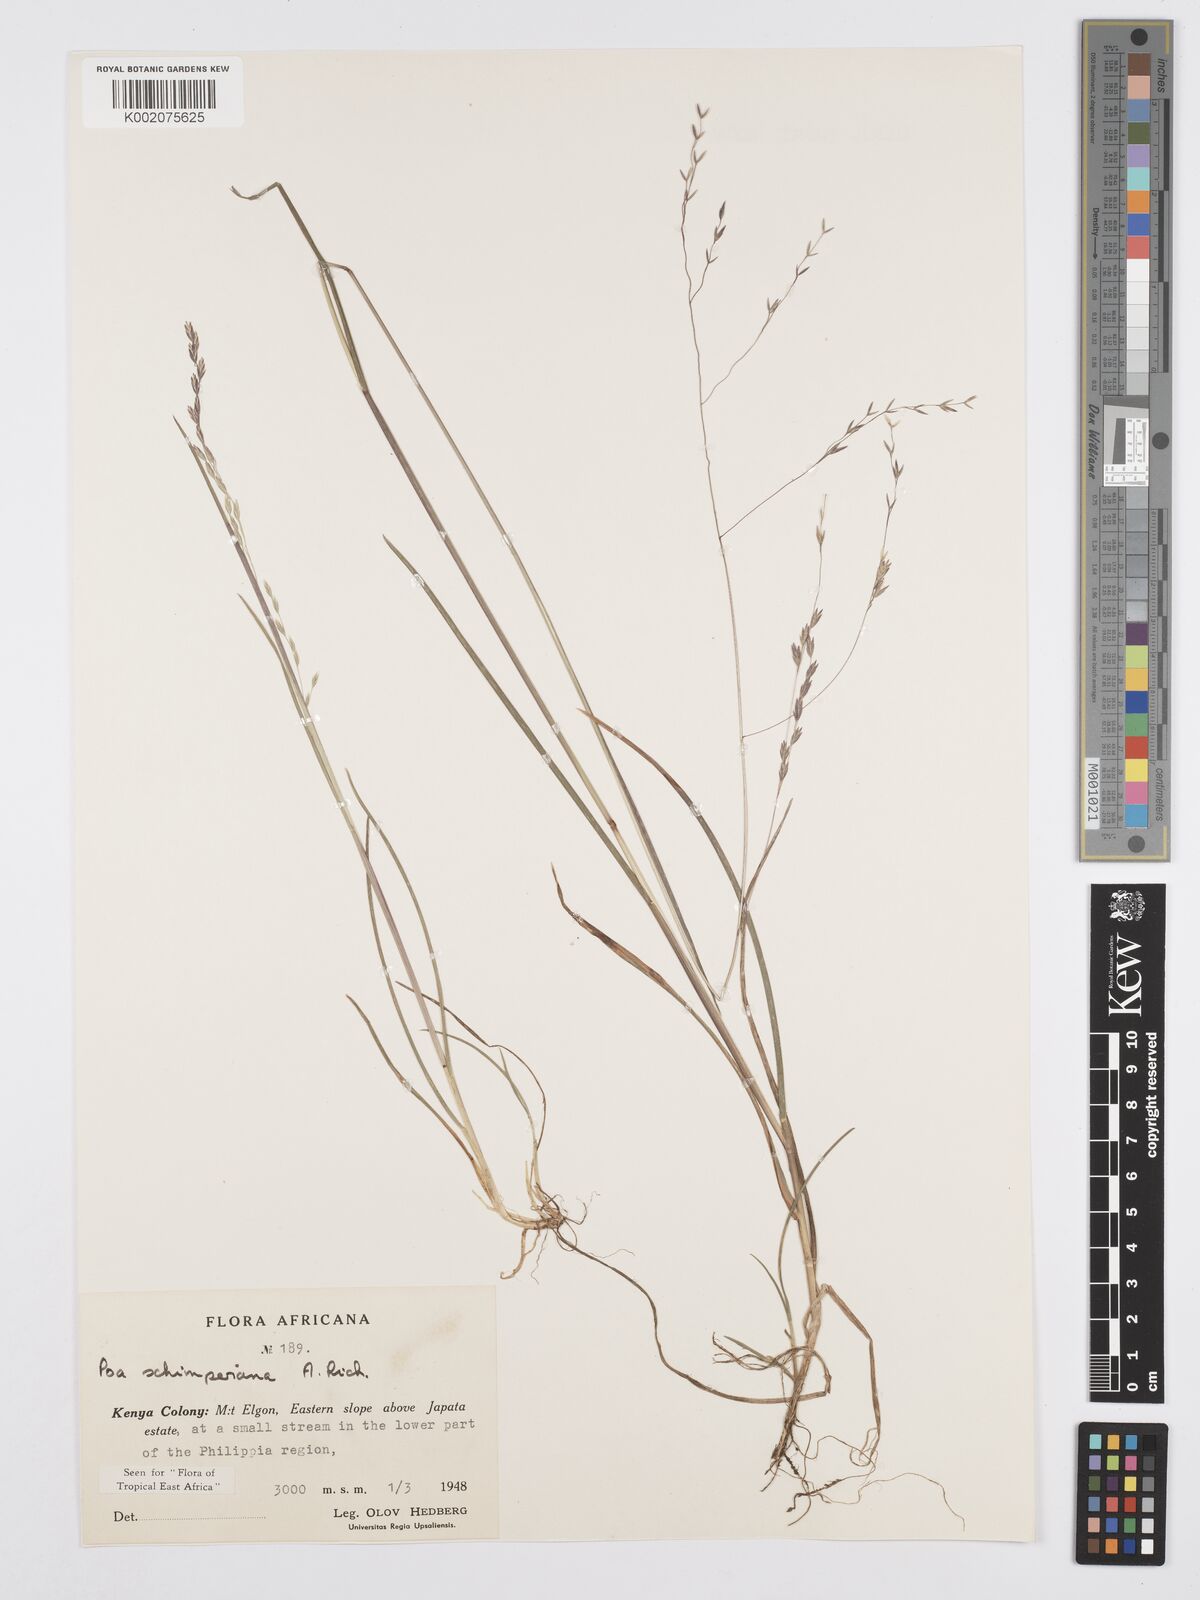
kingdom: Plantae
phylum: Tracheophyta
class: Liliopsida
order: Poales
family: Poaceae
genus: Poa
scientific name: Poa schimperiana
